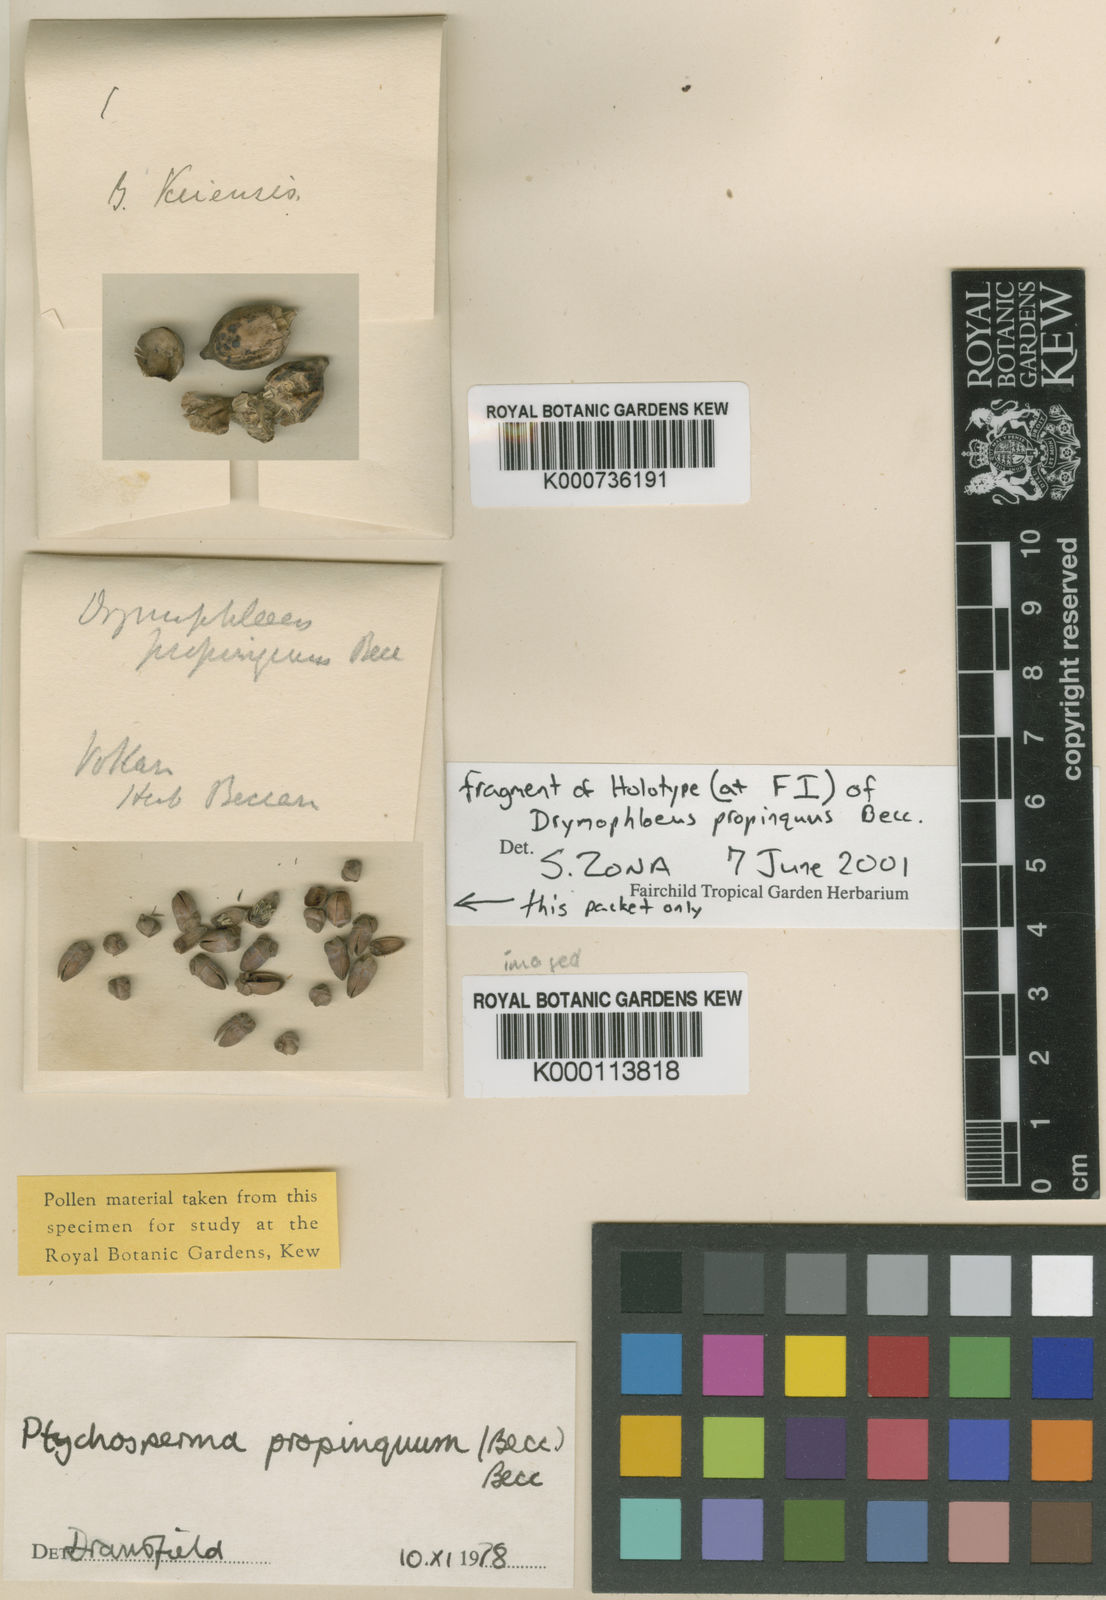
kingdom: Plantae
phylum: Tracheophyta
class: Liliopsida
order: Arecales
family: Arecaceae
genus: Ptychosperma
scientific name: Ptychosperma
